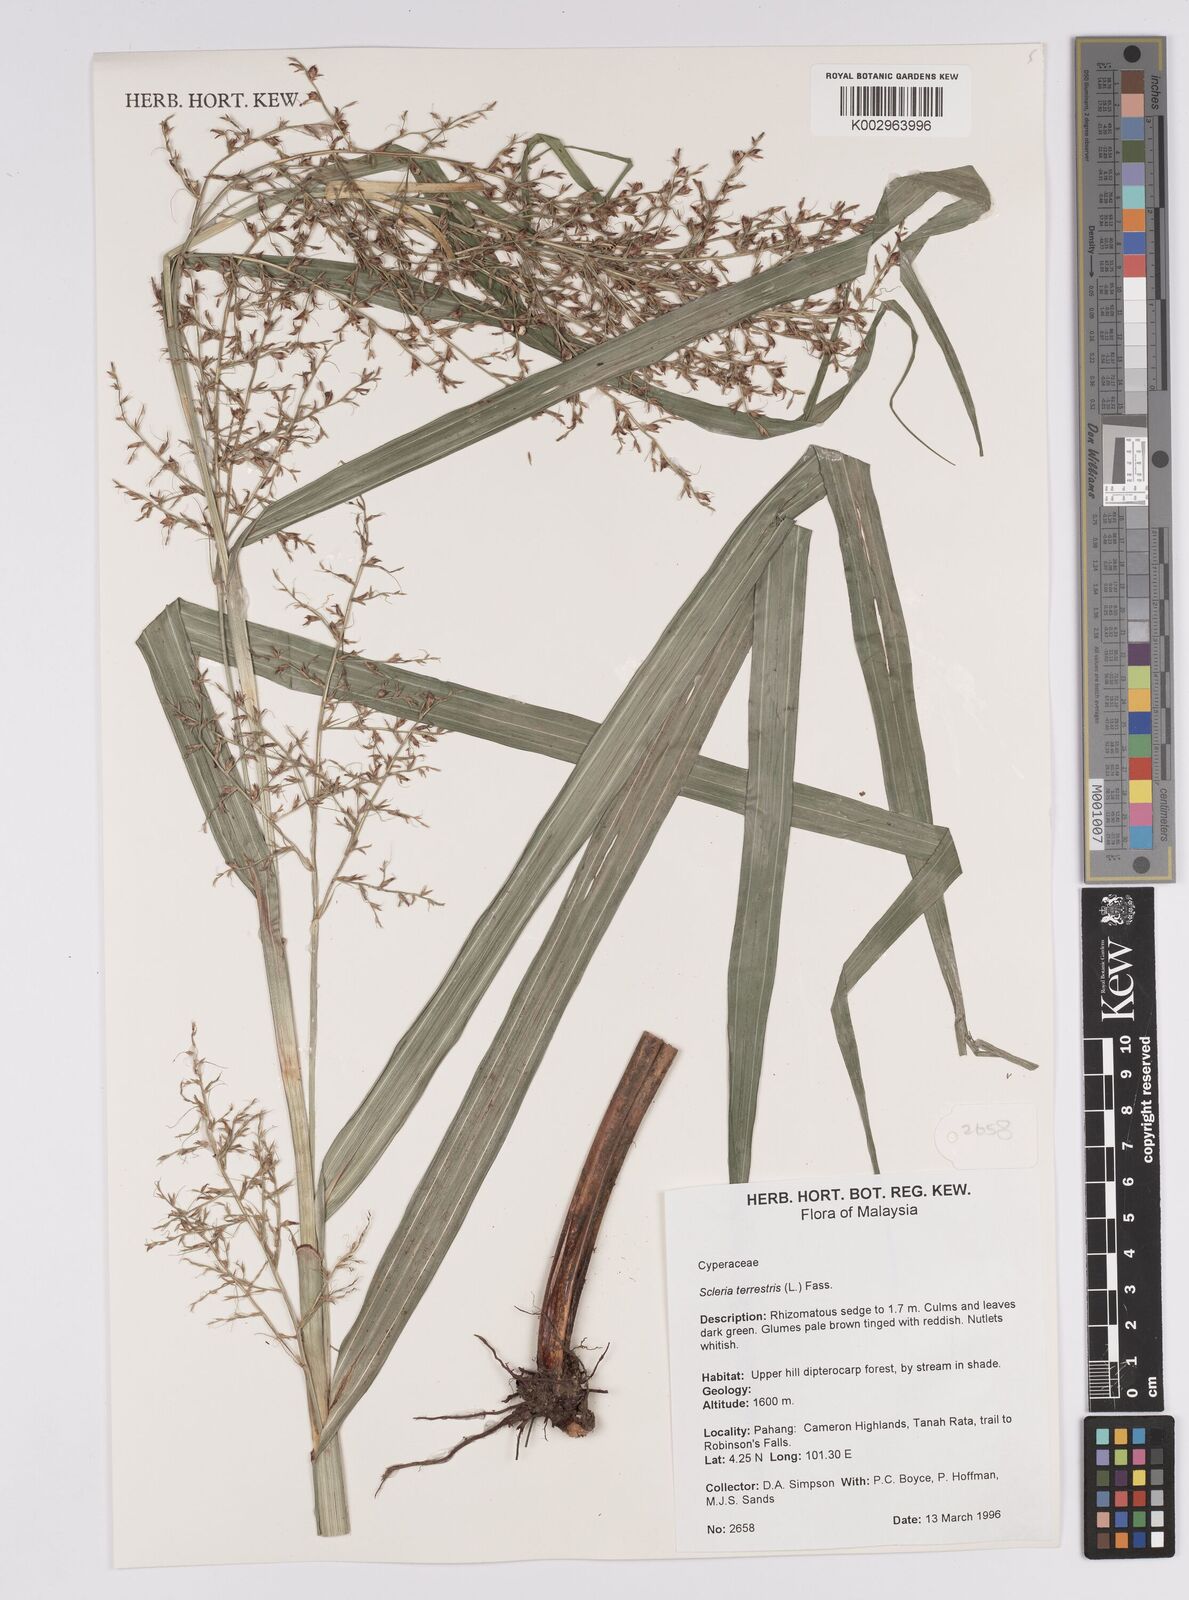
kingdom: Plantae
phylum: Tracheophyta
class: Liliopsida
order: Poales
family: Cyperaceae
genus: Scleria
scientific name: Scleria
